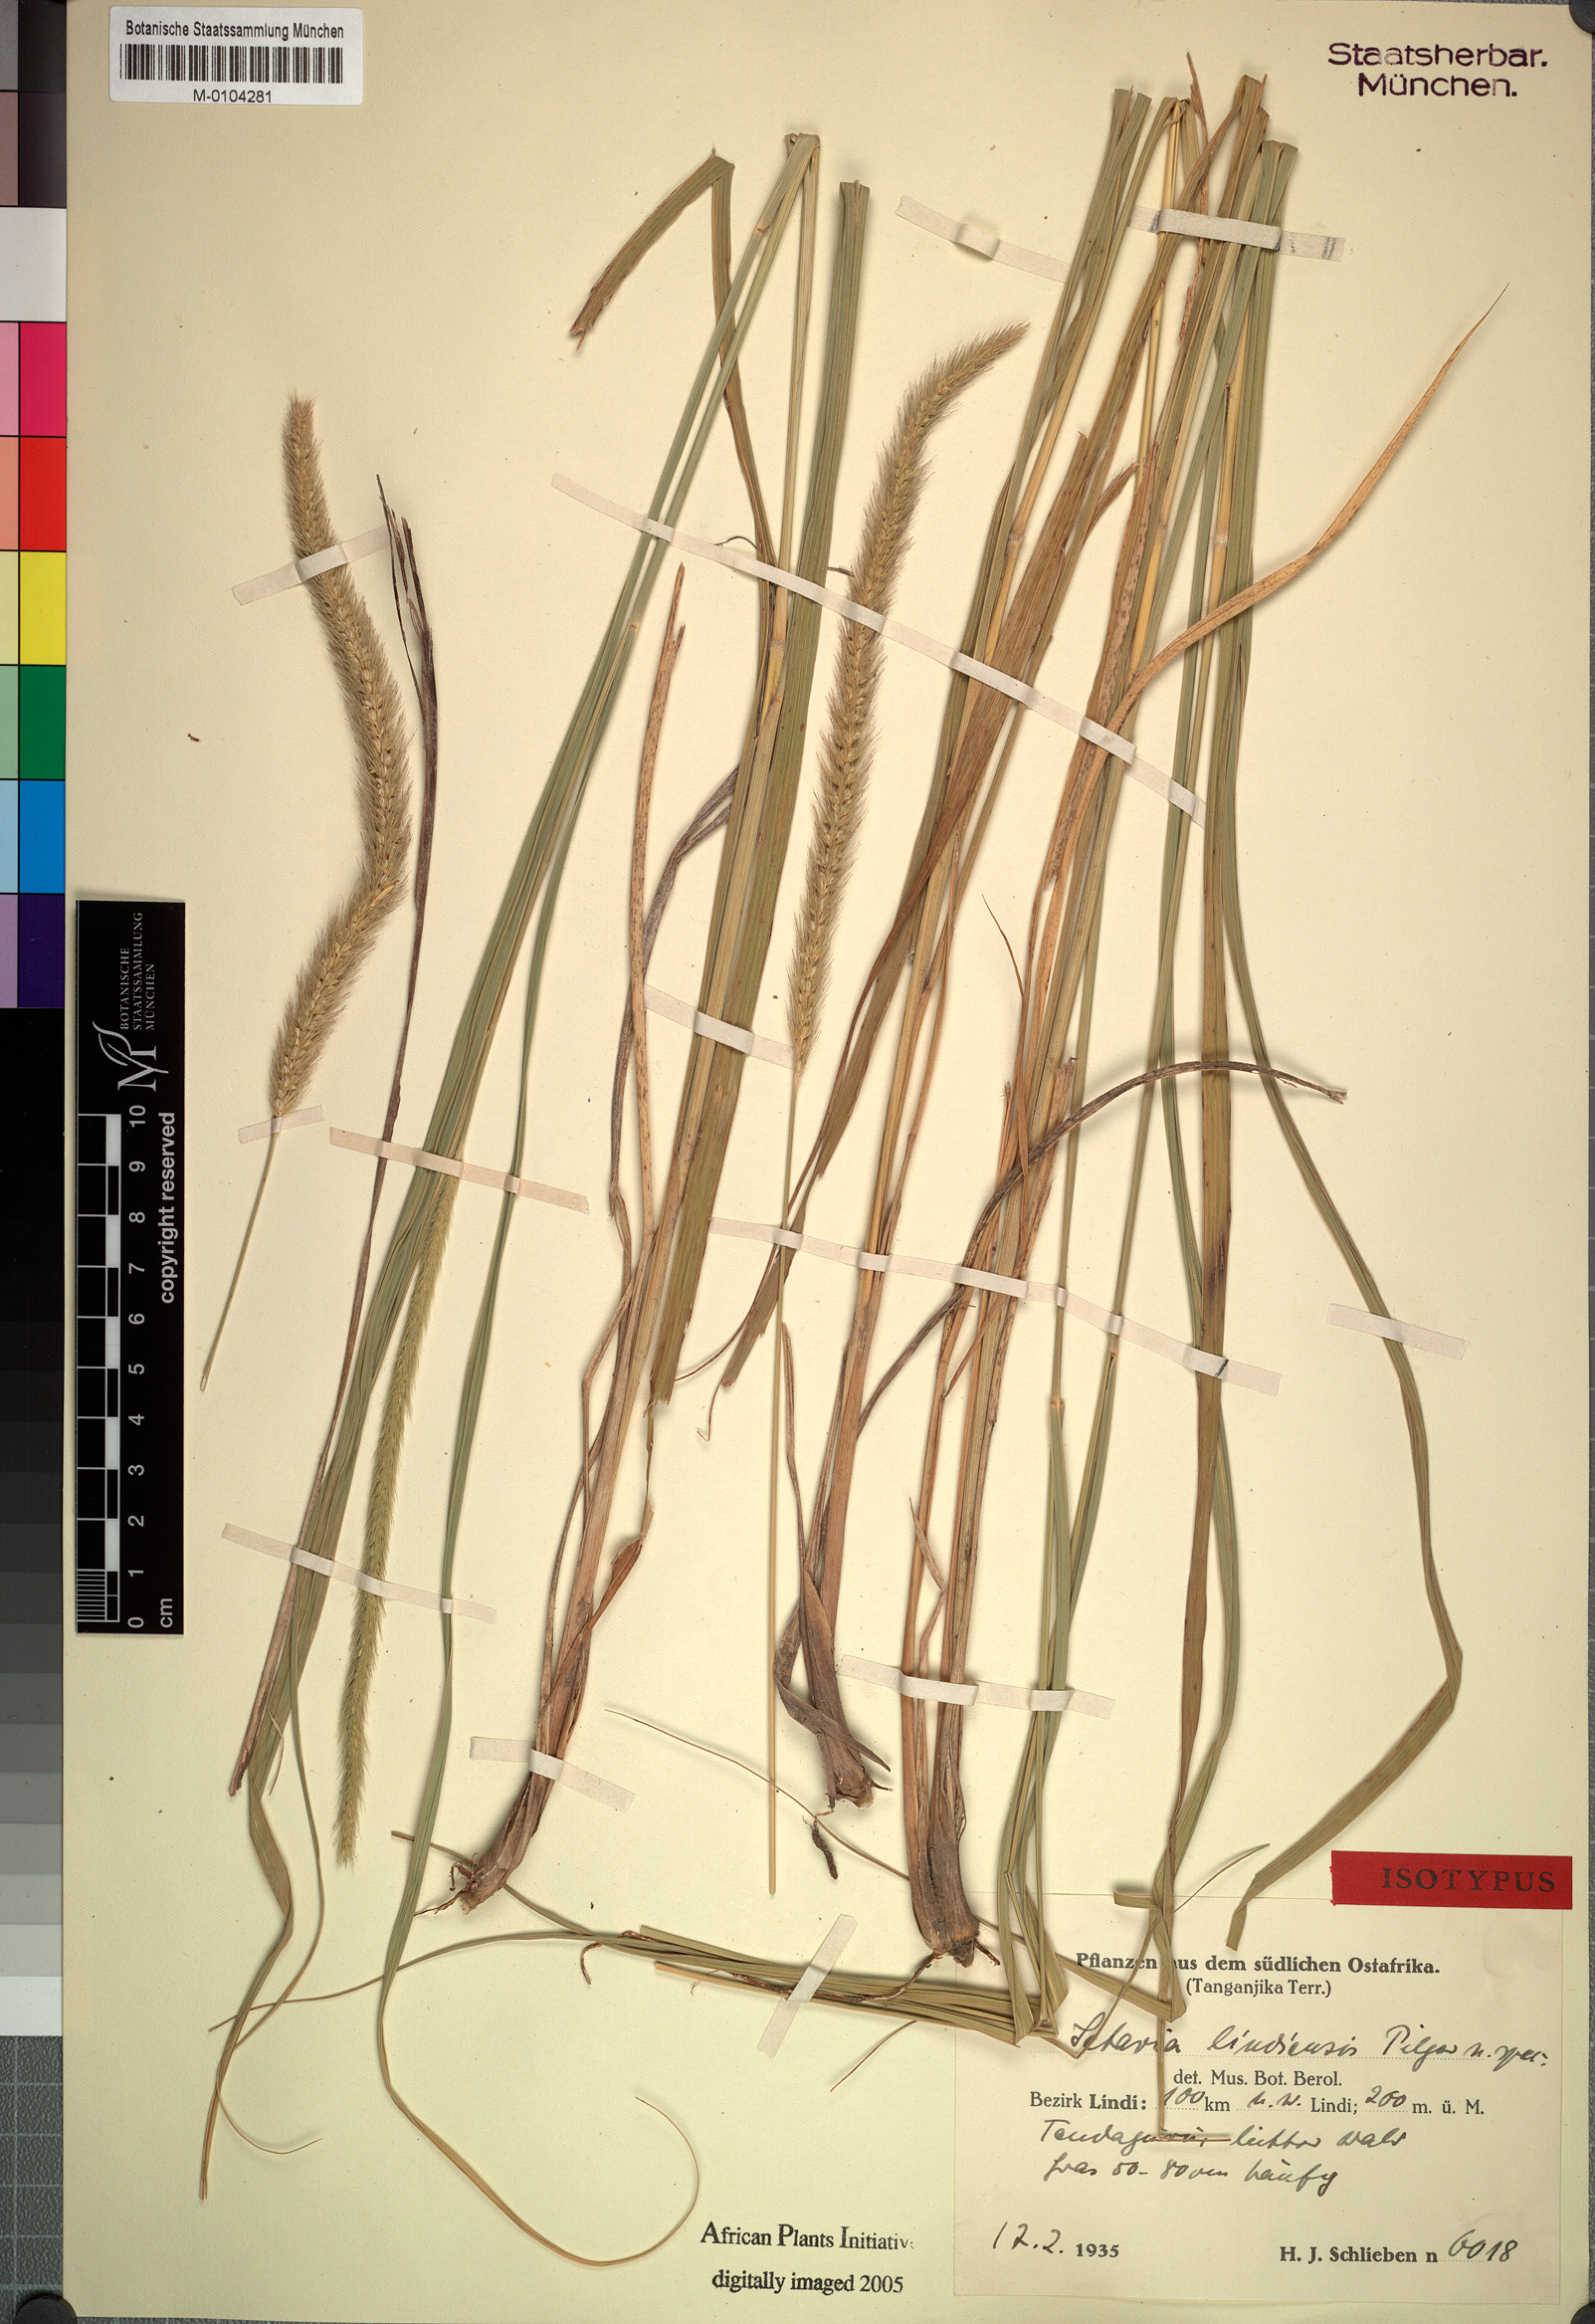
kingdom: Plantae
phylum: Tracheophyta
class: Liliopsida
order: Poales
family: Poaceae
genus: Setaria
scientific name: Setaria incrassata
